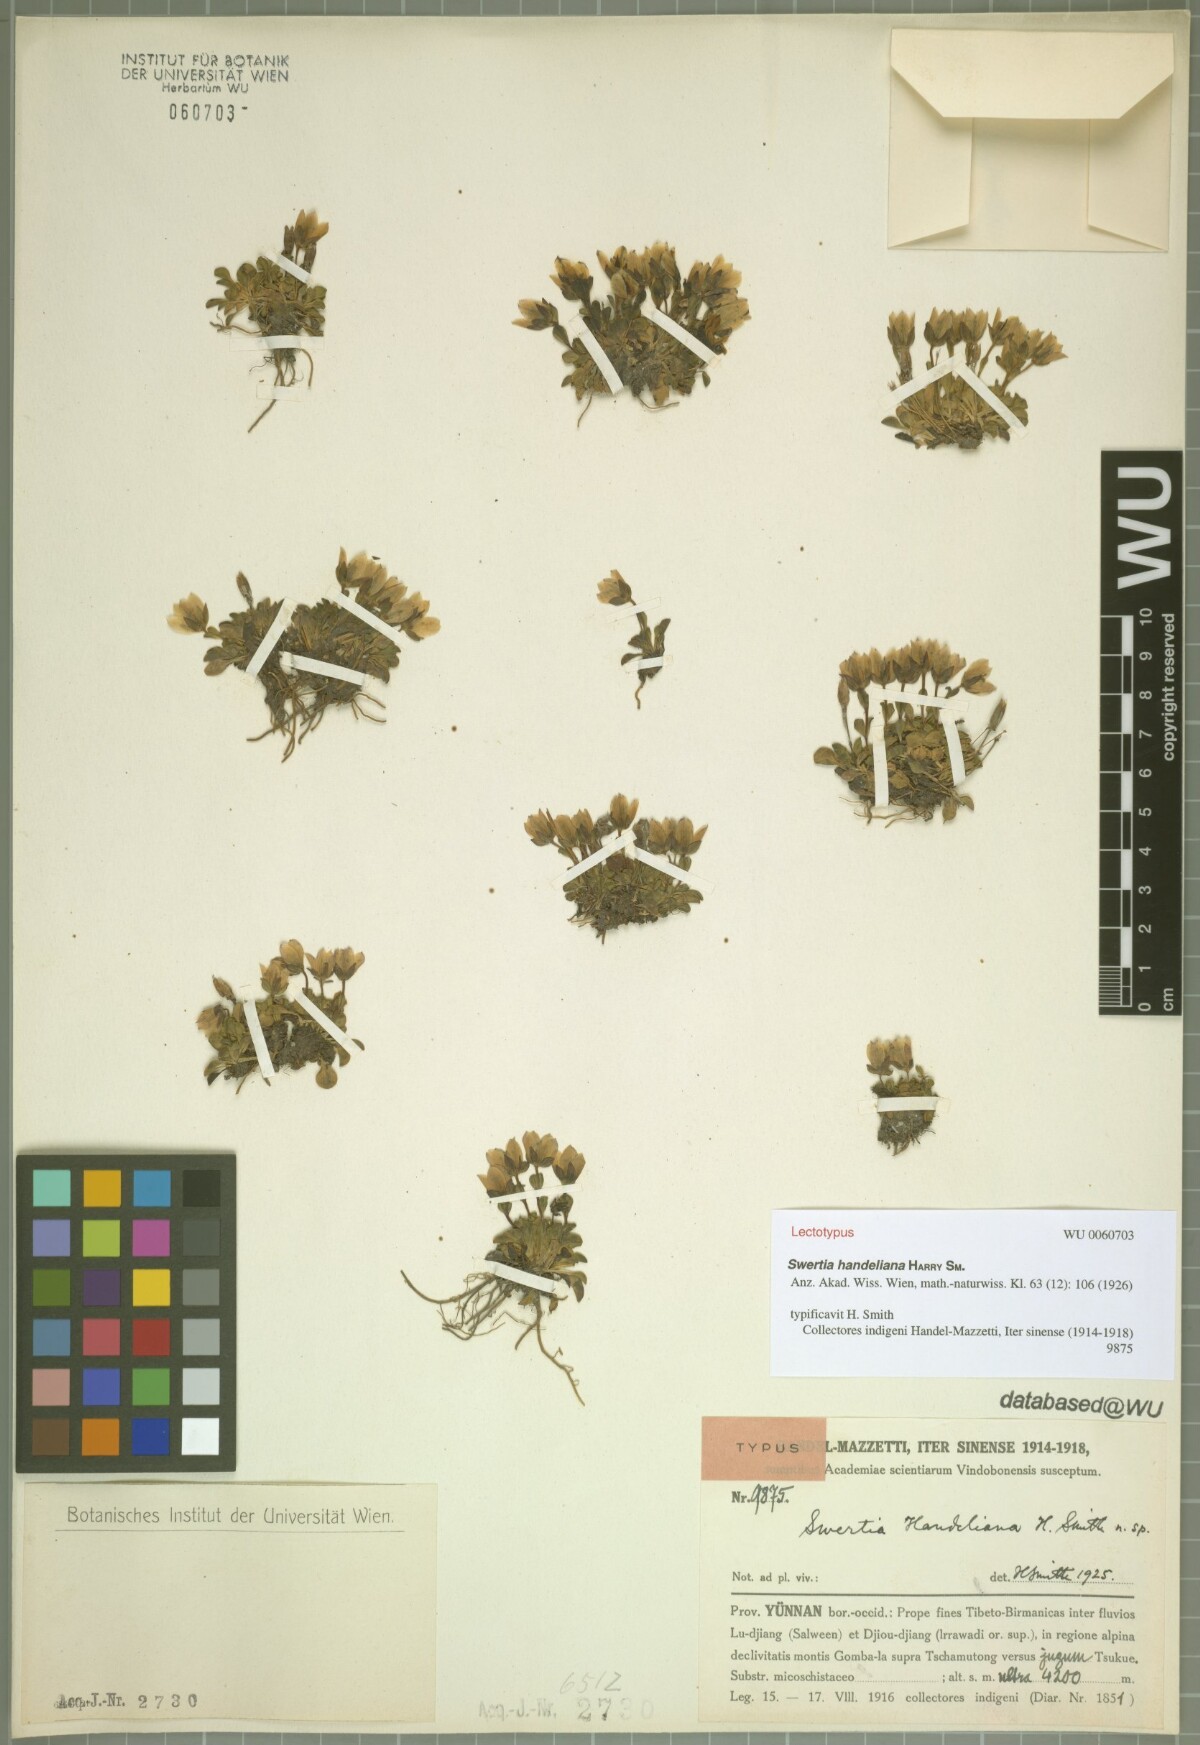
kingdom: Plantae
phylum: Tracheophyta
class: Magnoliopsida
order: Gentianales
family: Gentianaceae
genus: Swertia
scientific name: Swertia handeliana
